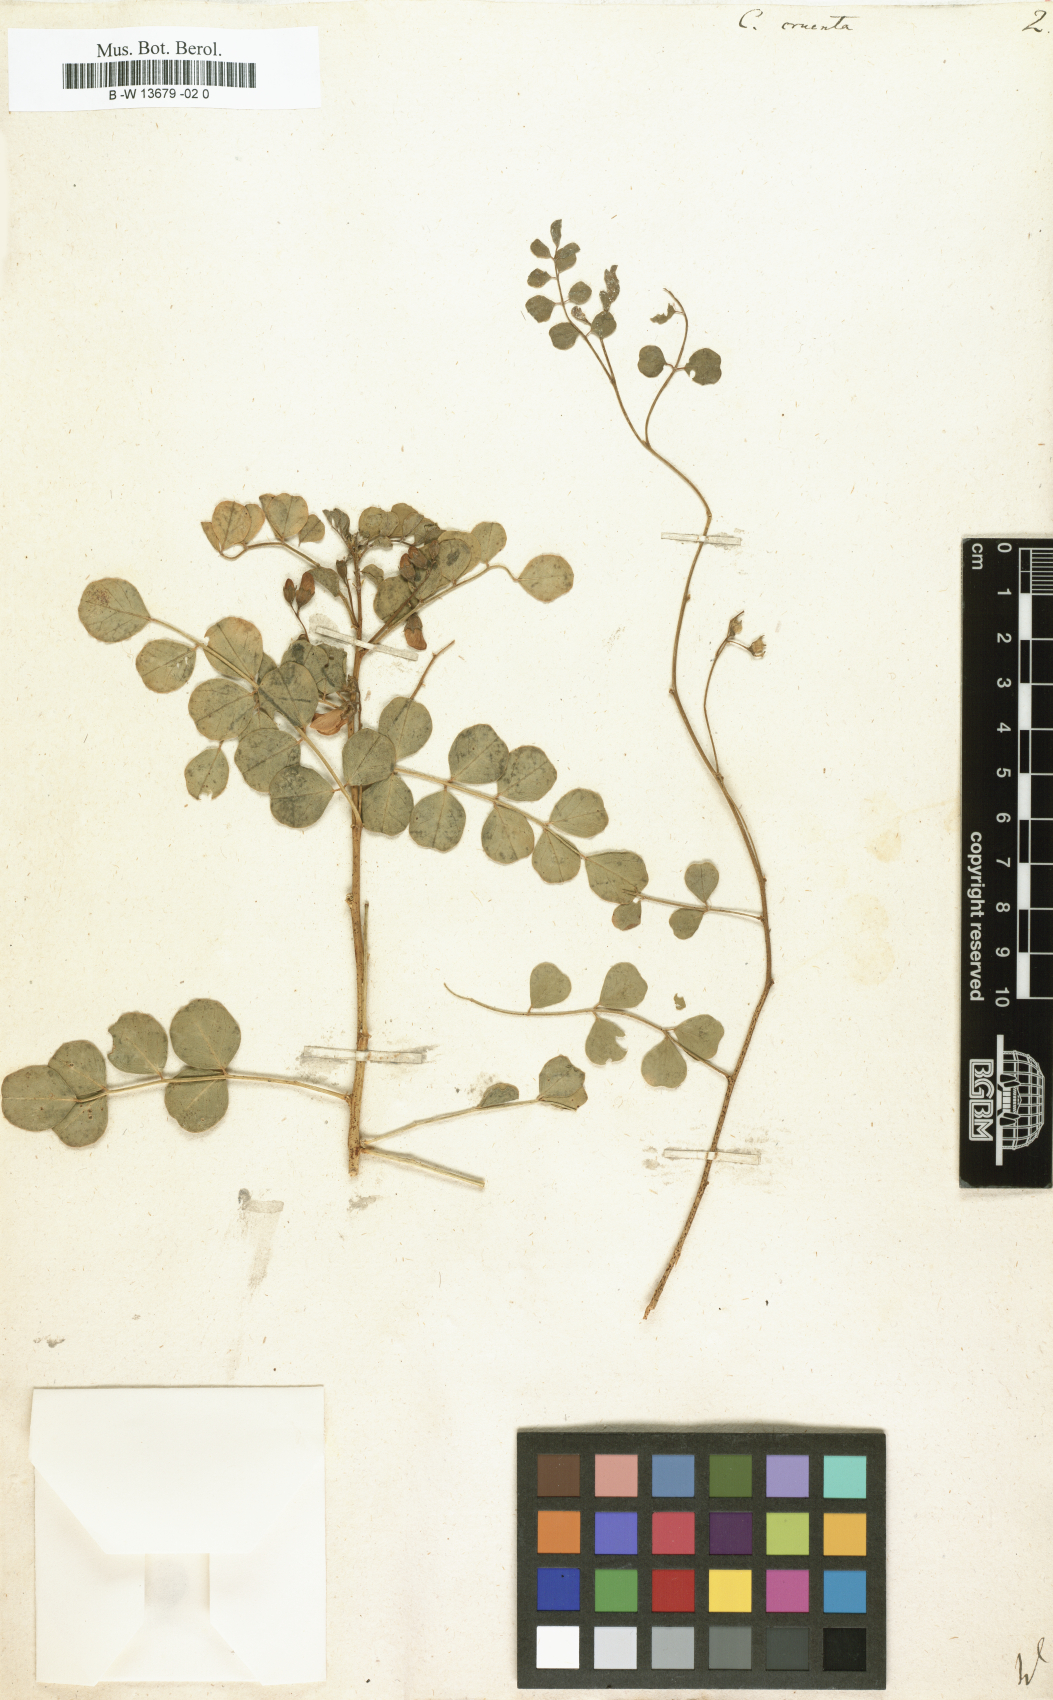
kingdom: Plantae
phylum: Tracheophyta
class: Magnoliopsida
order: Fabales
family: Fabaceae
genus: Colutea
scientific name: Colutea orientalis
